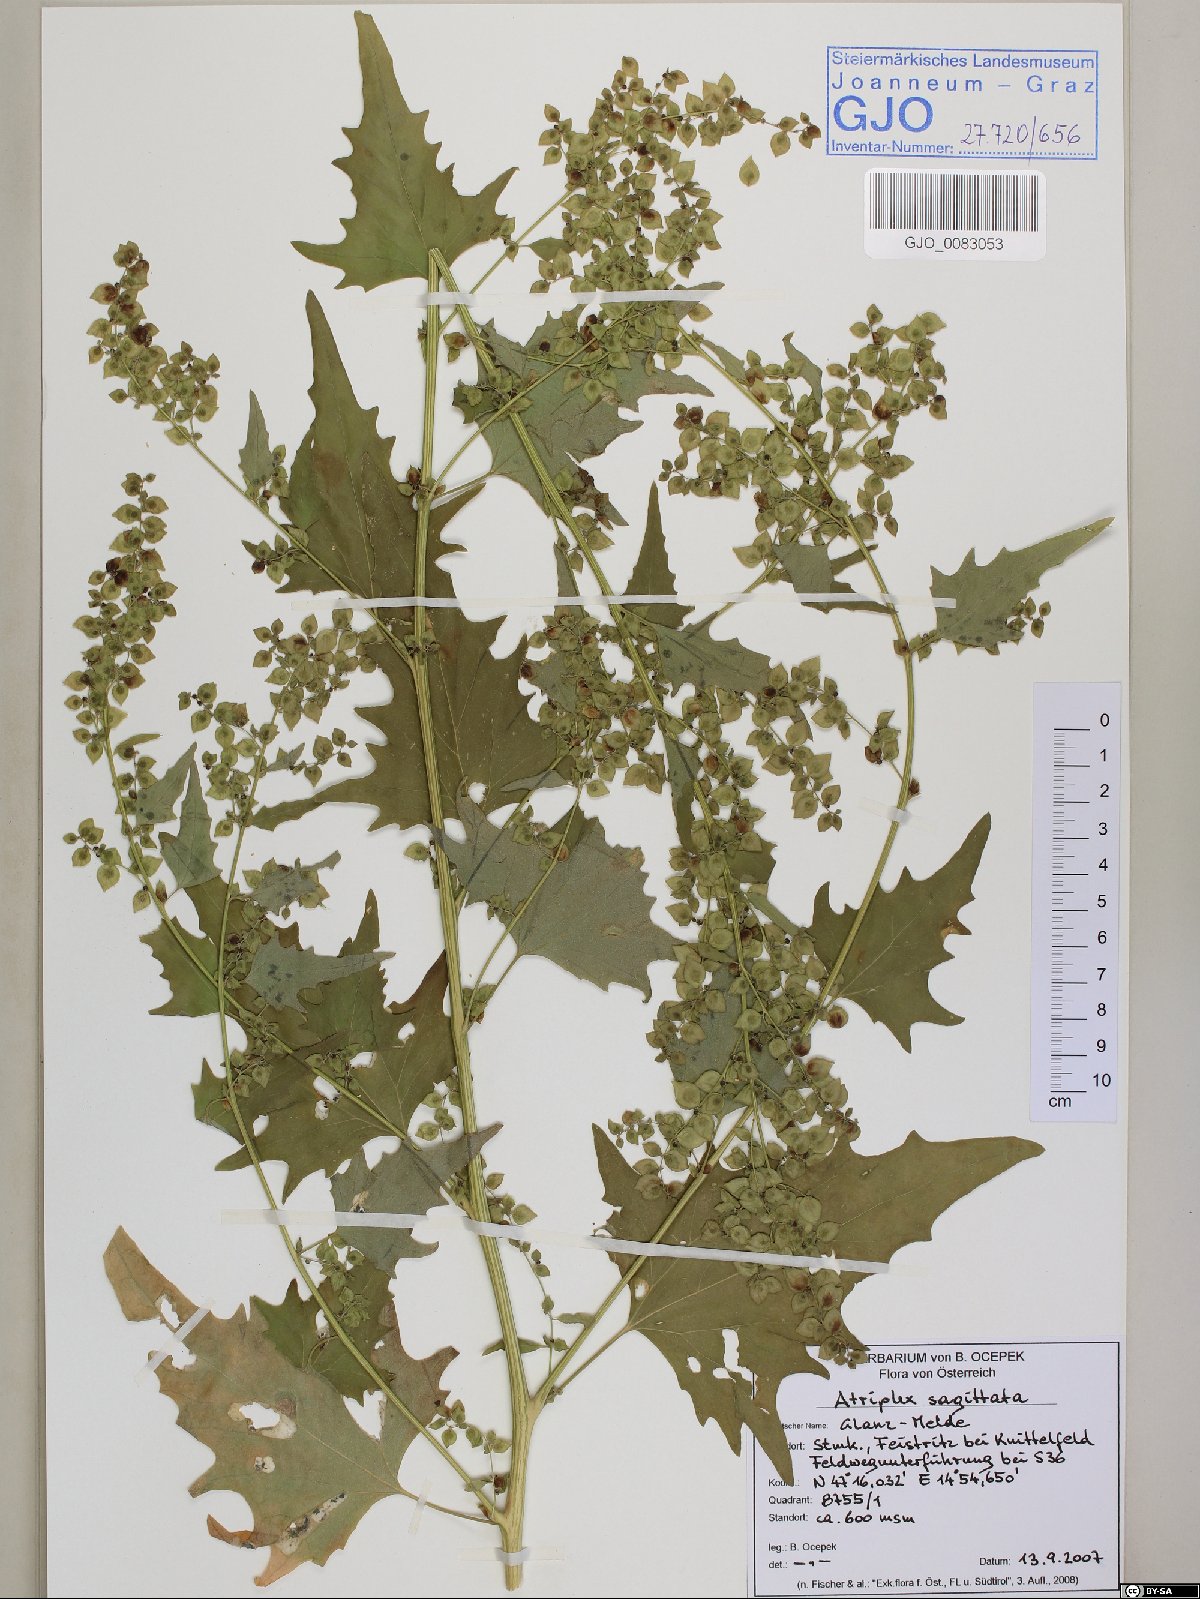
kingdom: Plantae
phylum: Tracheophyta
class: Magnoliopsida
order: Caryophyllales
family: Amaranthaceae
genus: Atriplex
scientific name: Atriplex sagittata
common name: Purple orache
